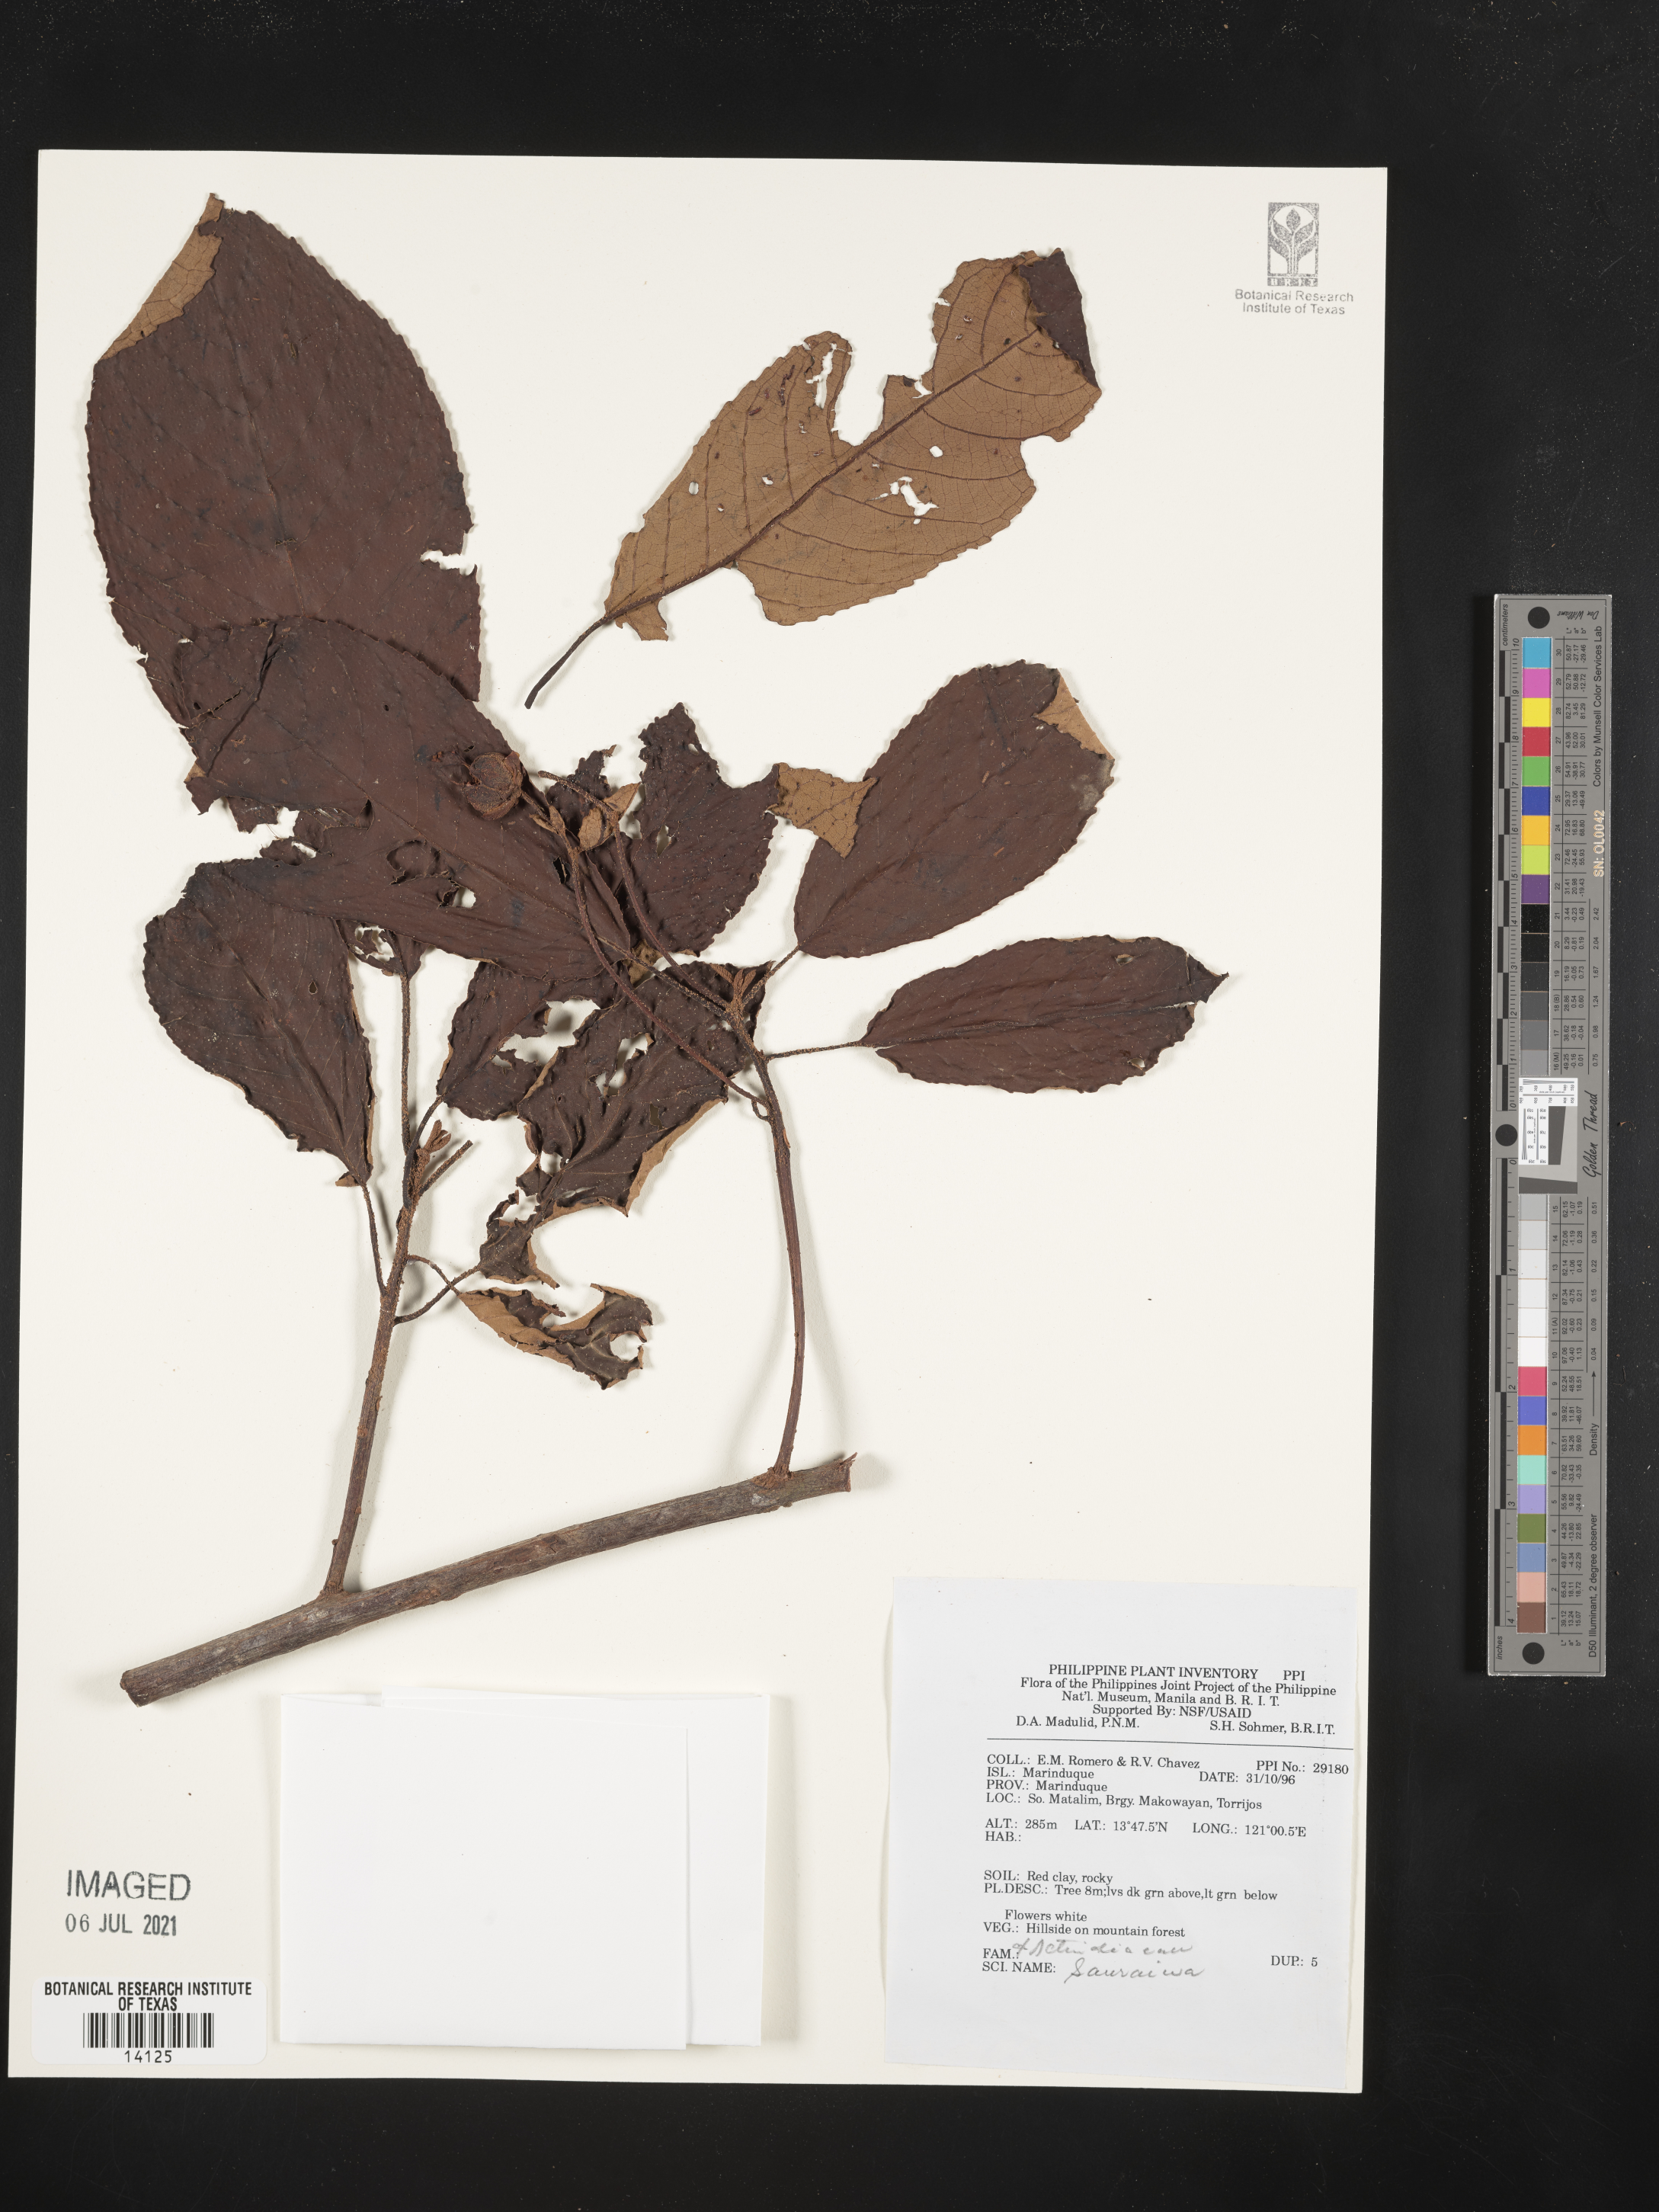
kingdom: Plantae
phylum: Tracheophyta
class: Magnoliopsida
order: Ericales
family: Actinidiaceae
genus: Saurauia
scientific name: Saurauia
